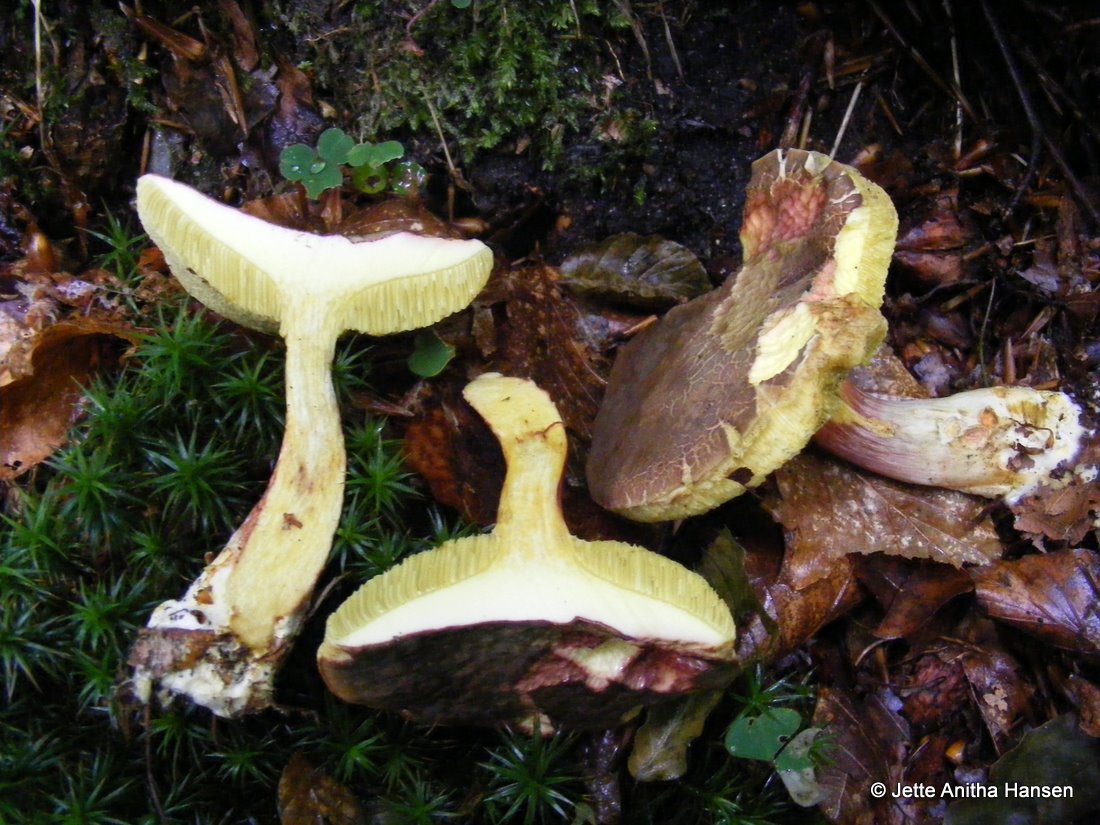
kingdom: Fungi
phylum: Basidiomycota
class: Agaricomycetes
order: Boletales
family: Boletaceae
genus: Xerocomellus
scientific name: Xerocomellus chrysenteron
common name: rødsprukken rørhat
